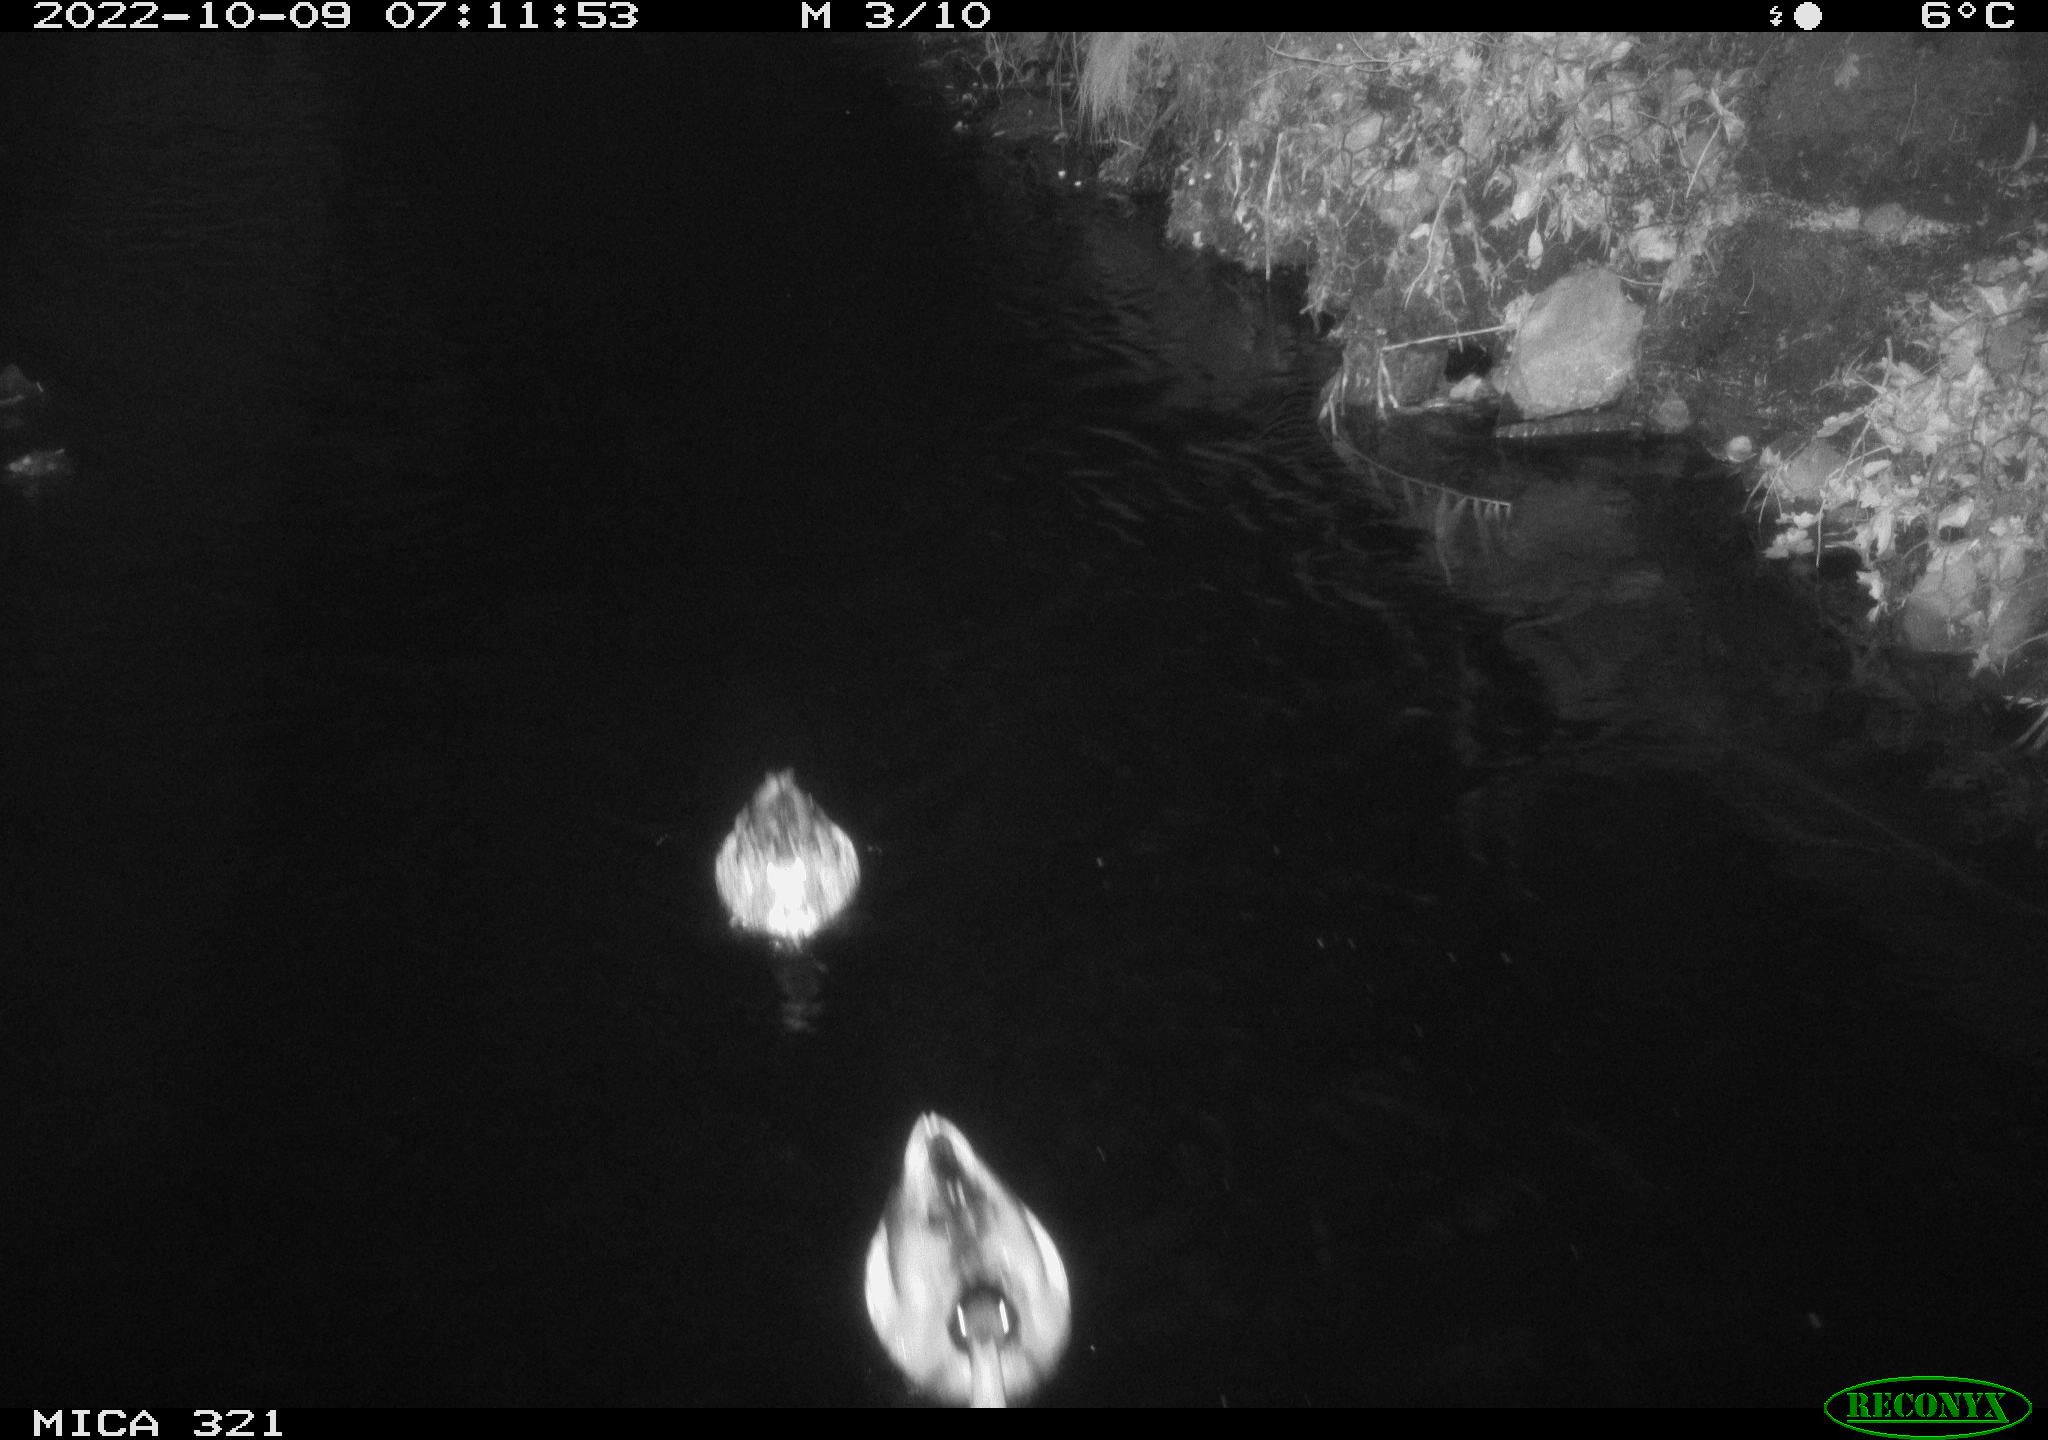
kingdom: Animalia
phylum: Chordata
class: Aves
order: Anseriformes
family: Anatidae
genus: Anas
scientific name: Anas
